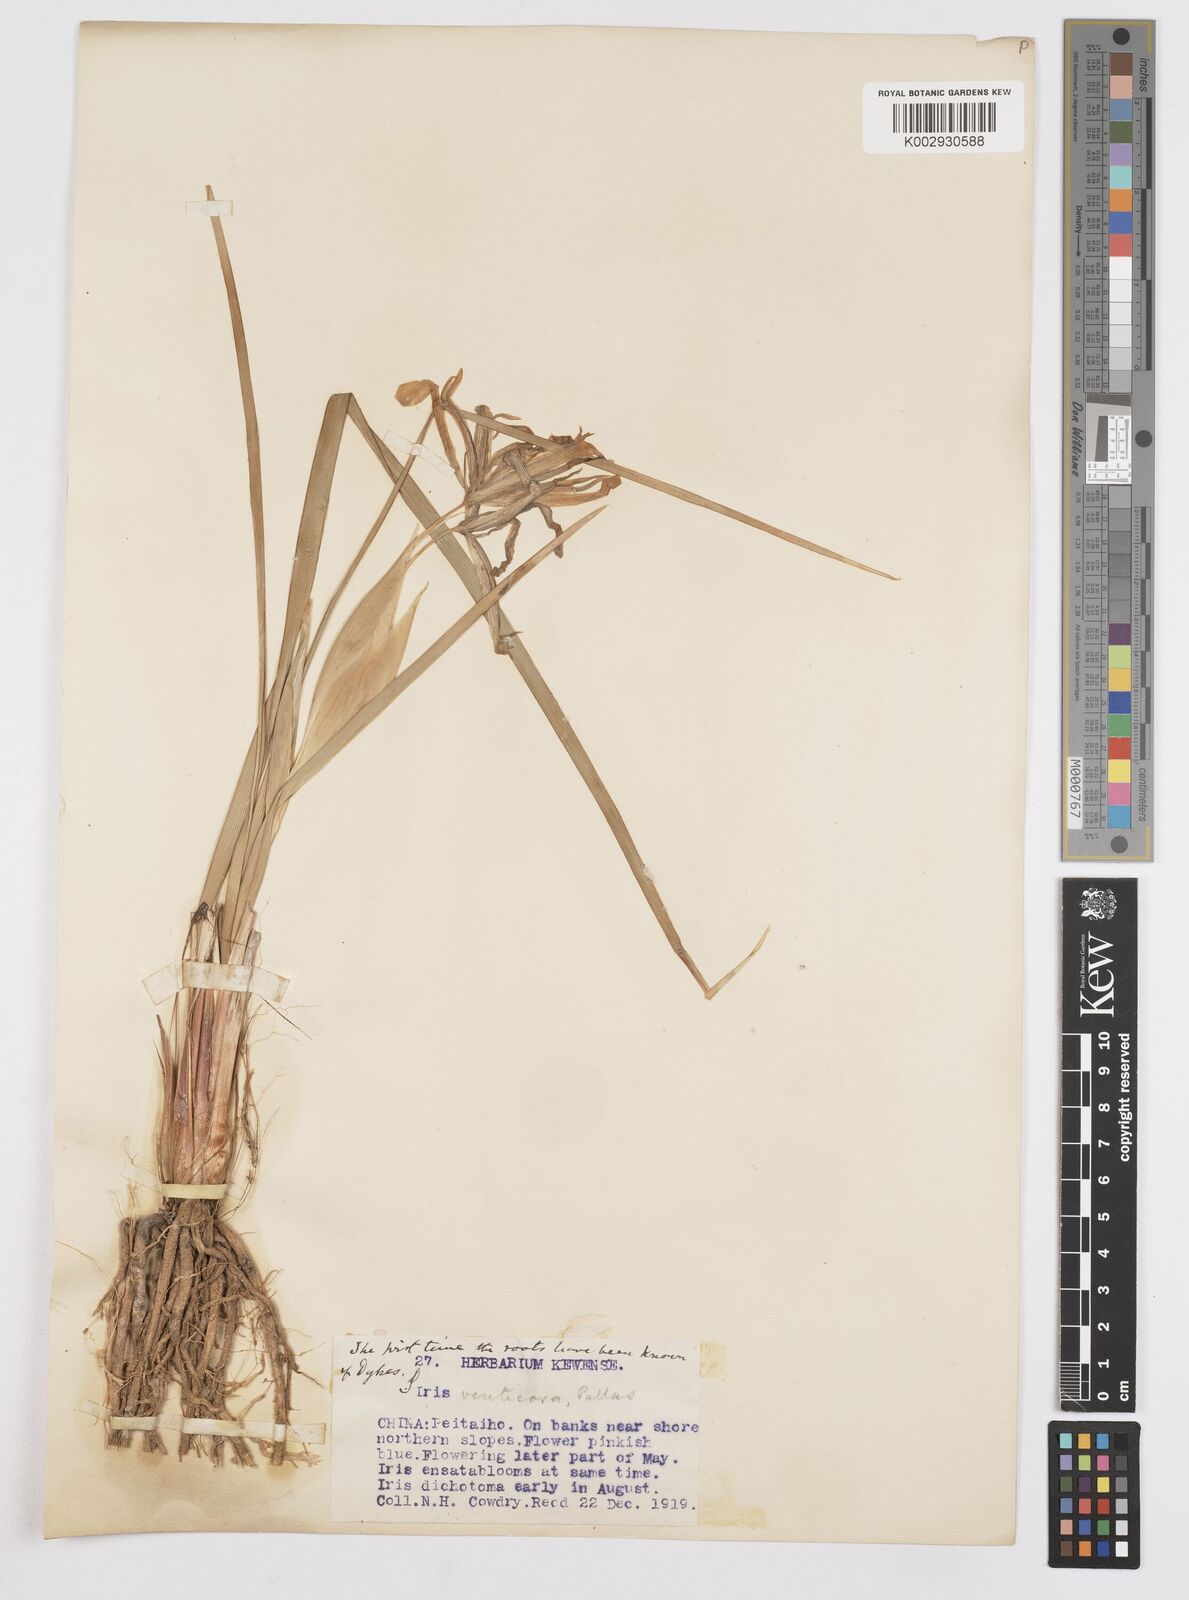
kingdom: Plantae
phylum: Tracheophyta
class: Liliopsida
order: Asparagales
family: Iridaceae
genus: Iris
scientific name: Iris ventricosa
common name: Purple-flower iris
